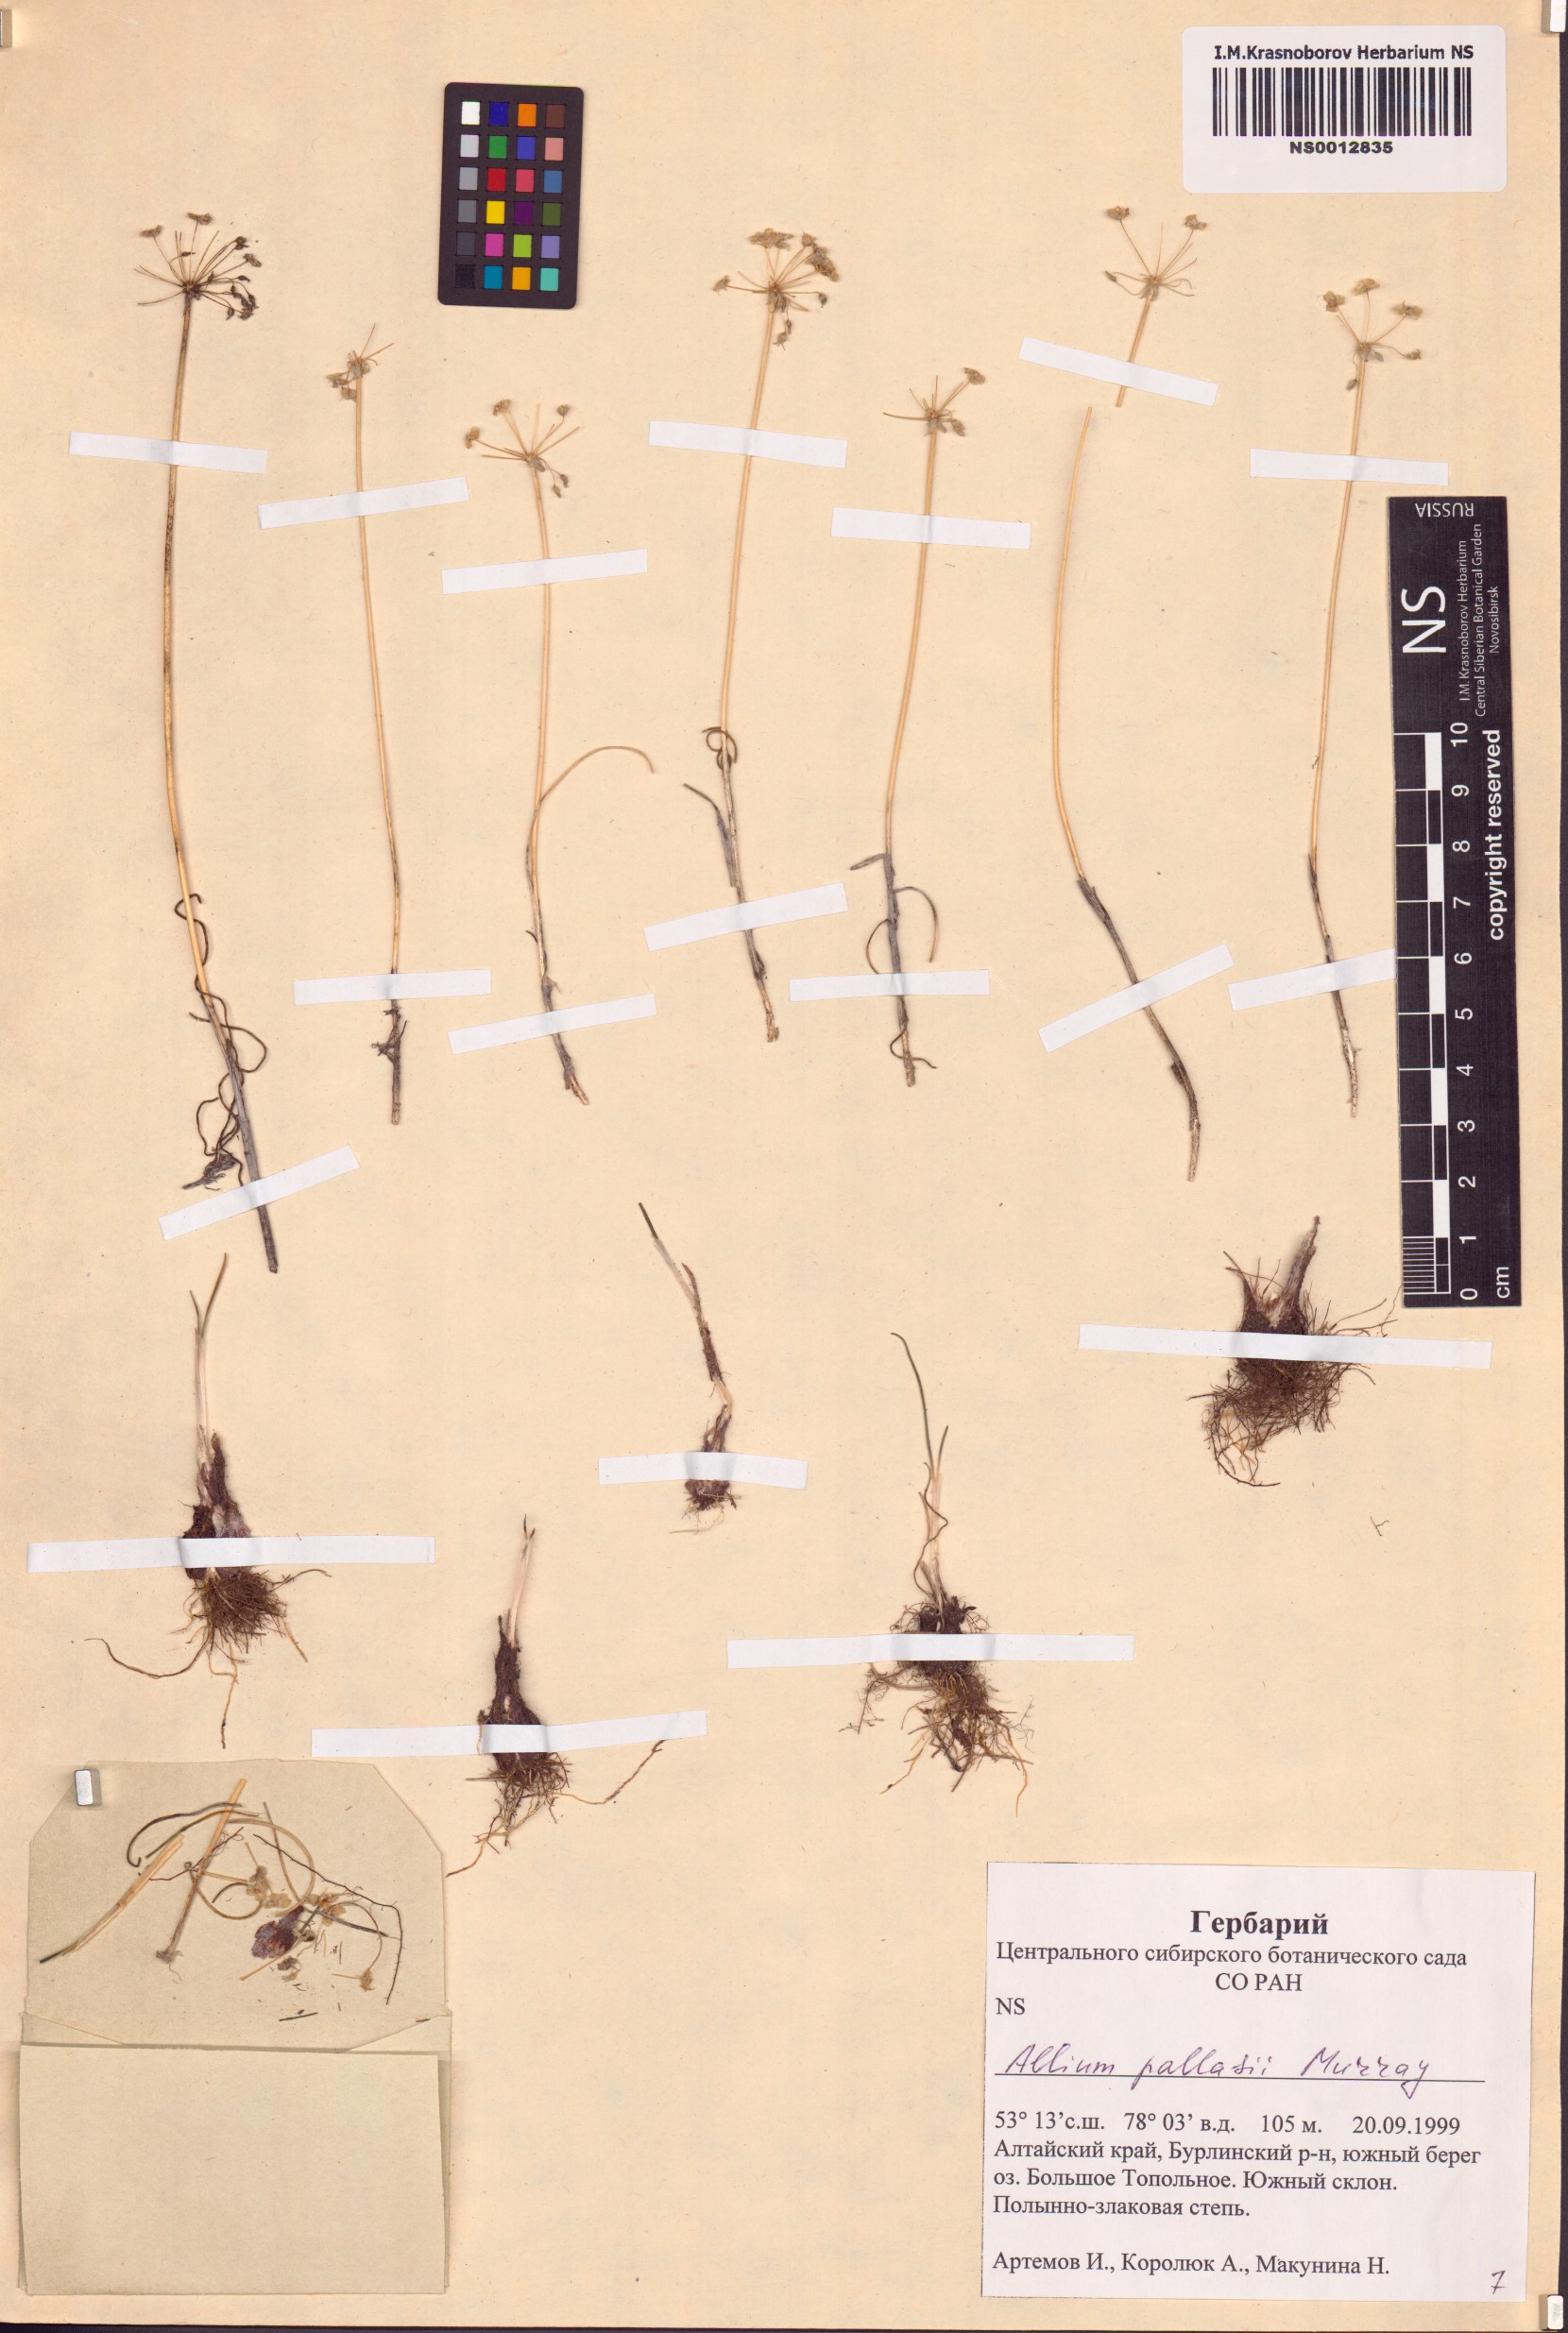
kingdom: Plantae
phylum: Tracheophyta
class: Liliopsida
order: Asparagales
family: Amaryllidaceae
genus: Allium
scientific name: Allium pallasii
